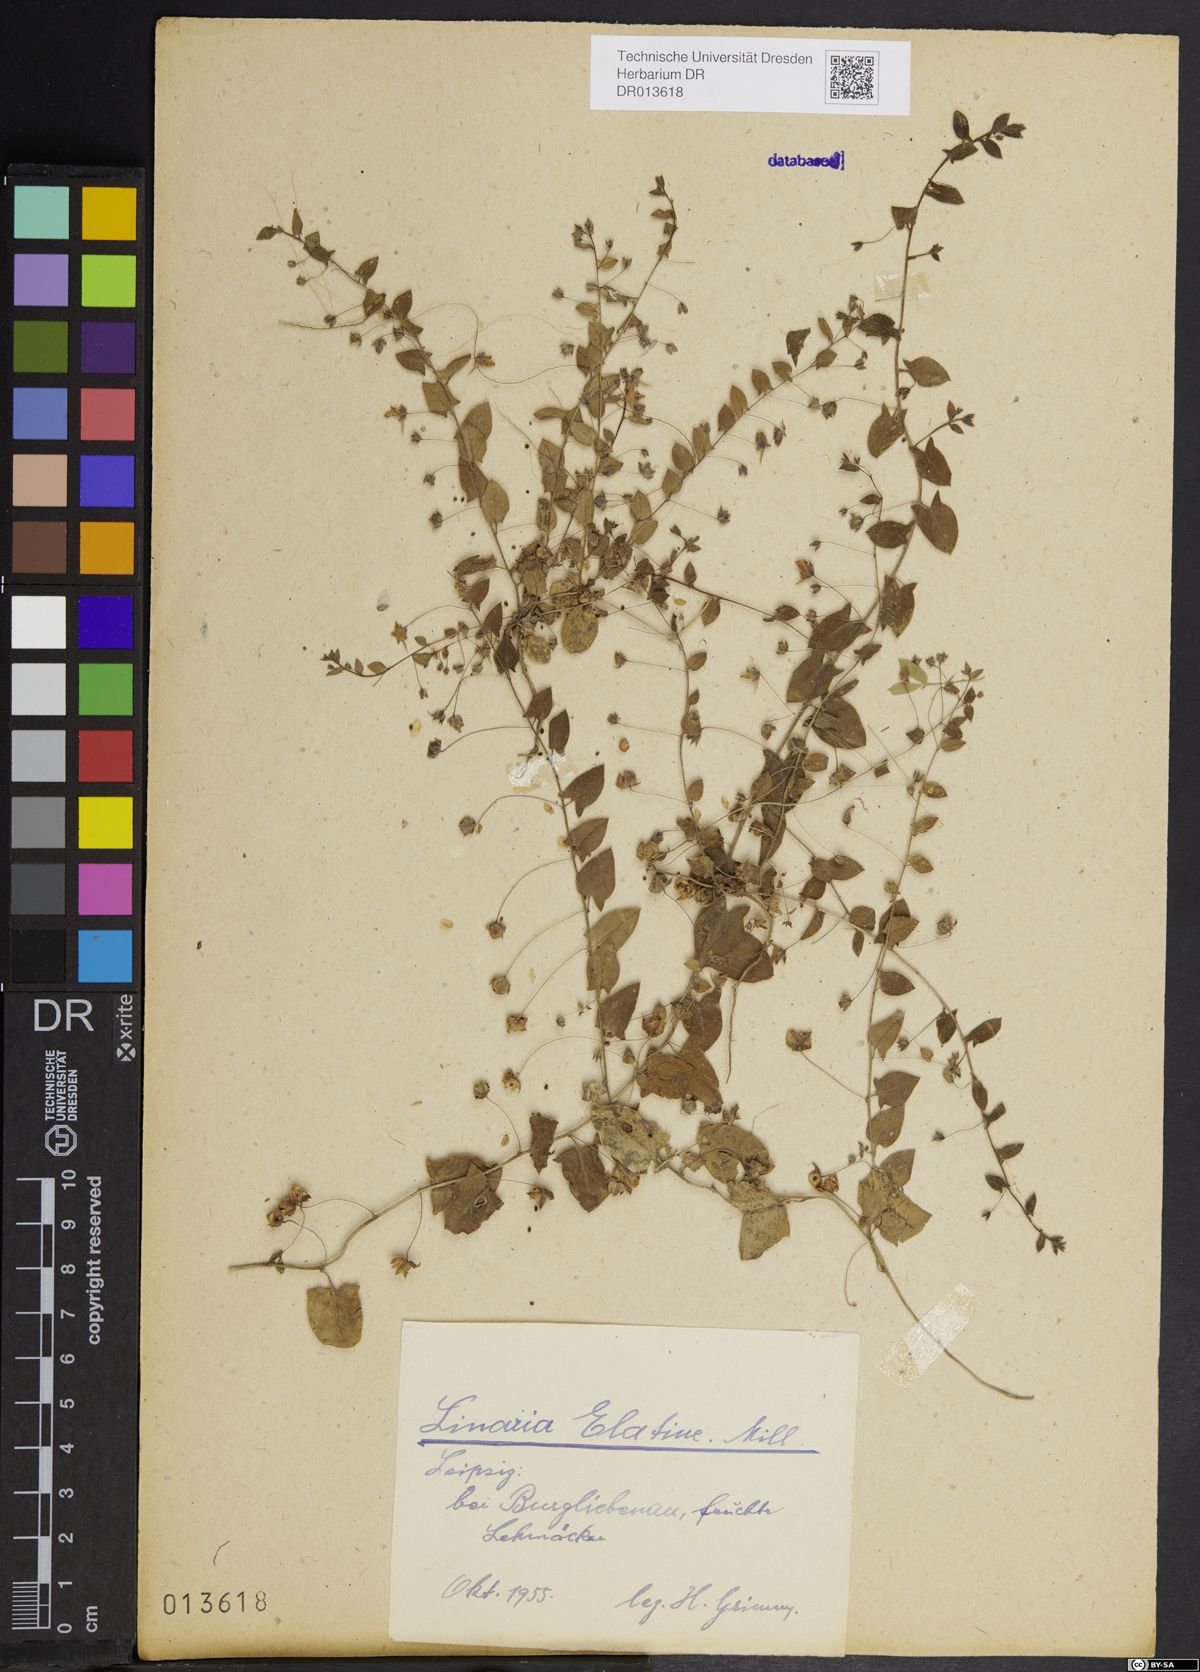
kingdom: Plantae
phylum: Tracheophyta
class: Magnoliopsida
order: Lamiales
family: Plantaginaceae
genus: Kickxia
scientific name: Kickxia elatine
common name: Sharp-leaved fluellen
